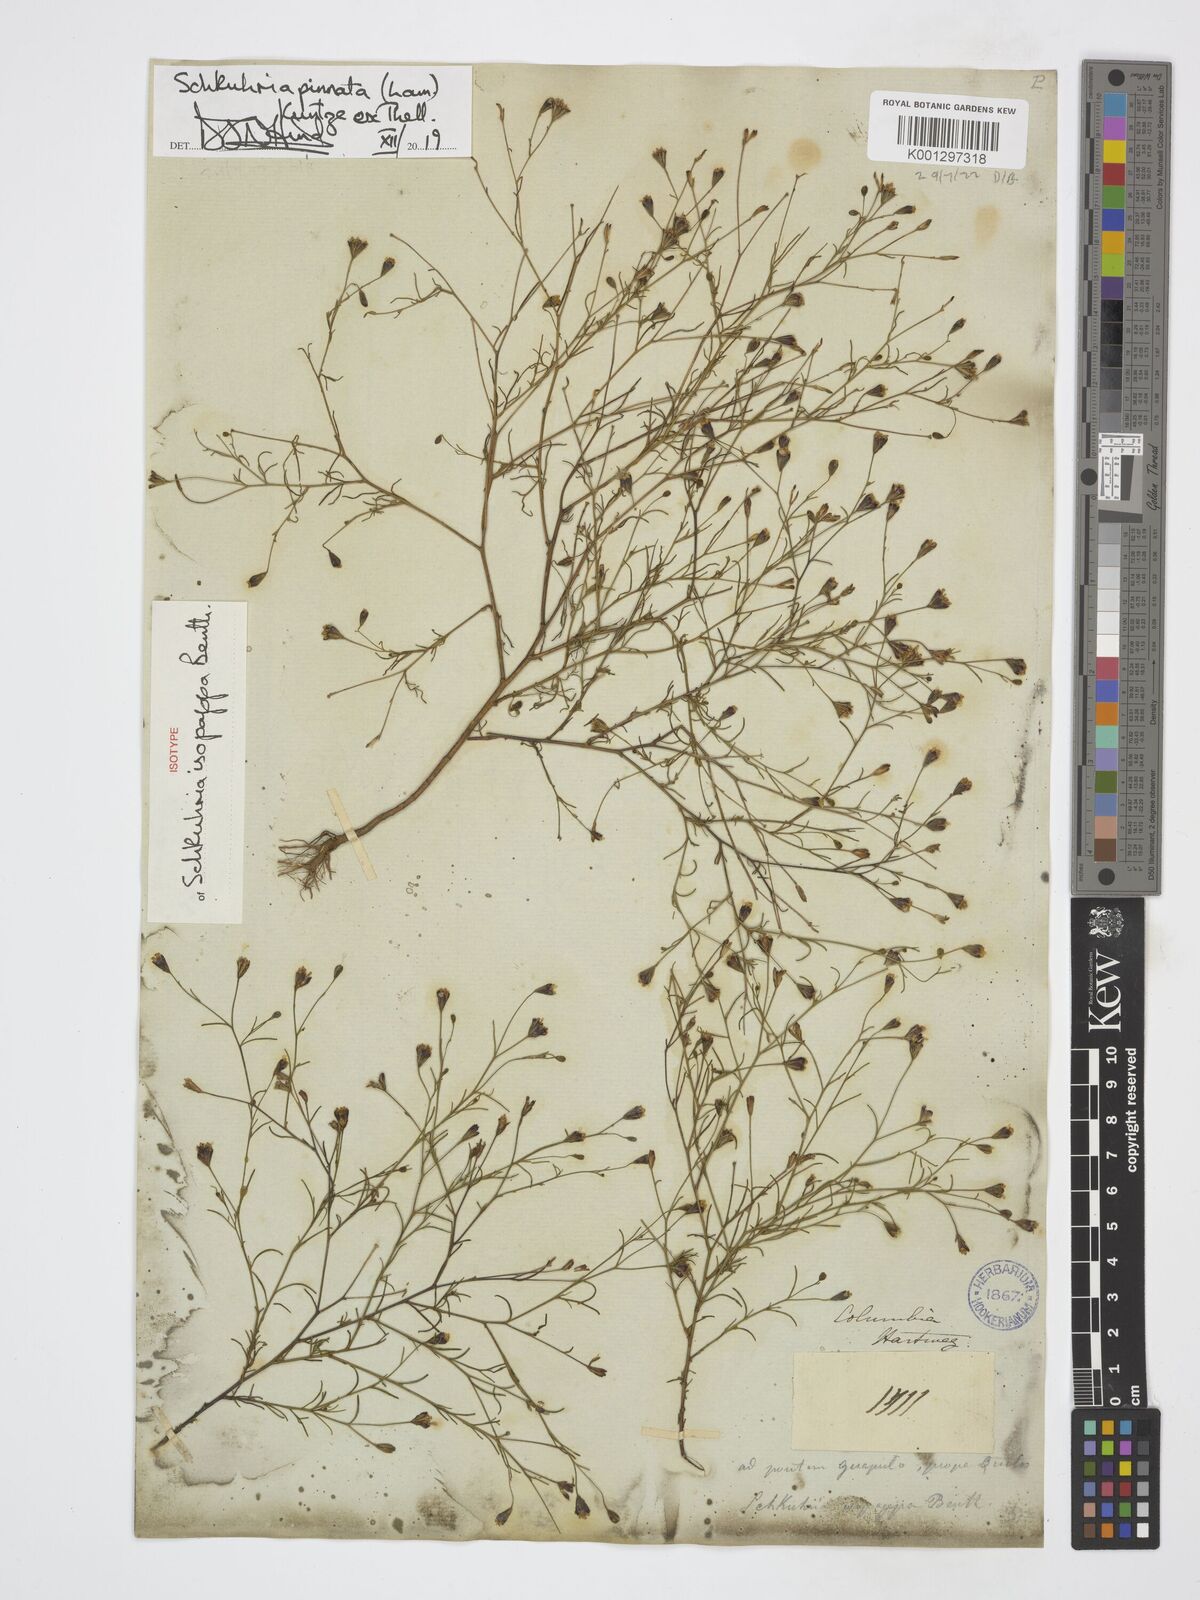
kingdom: Plantae
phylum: Tracheophyta
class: Magnoliopsida
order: Asterales
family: Asteraceae
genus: Schkuhria
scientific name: Schkuhria pinnata
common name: Dwarf marigold
